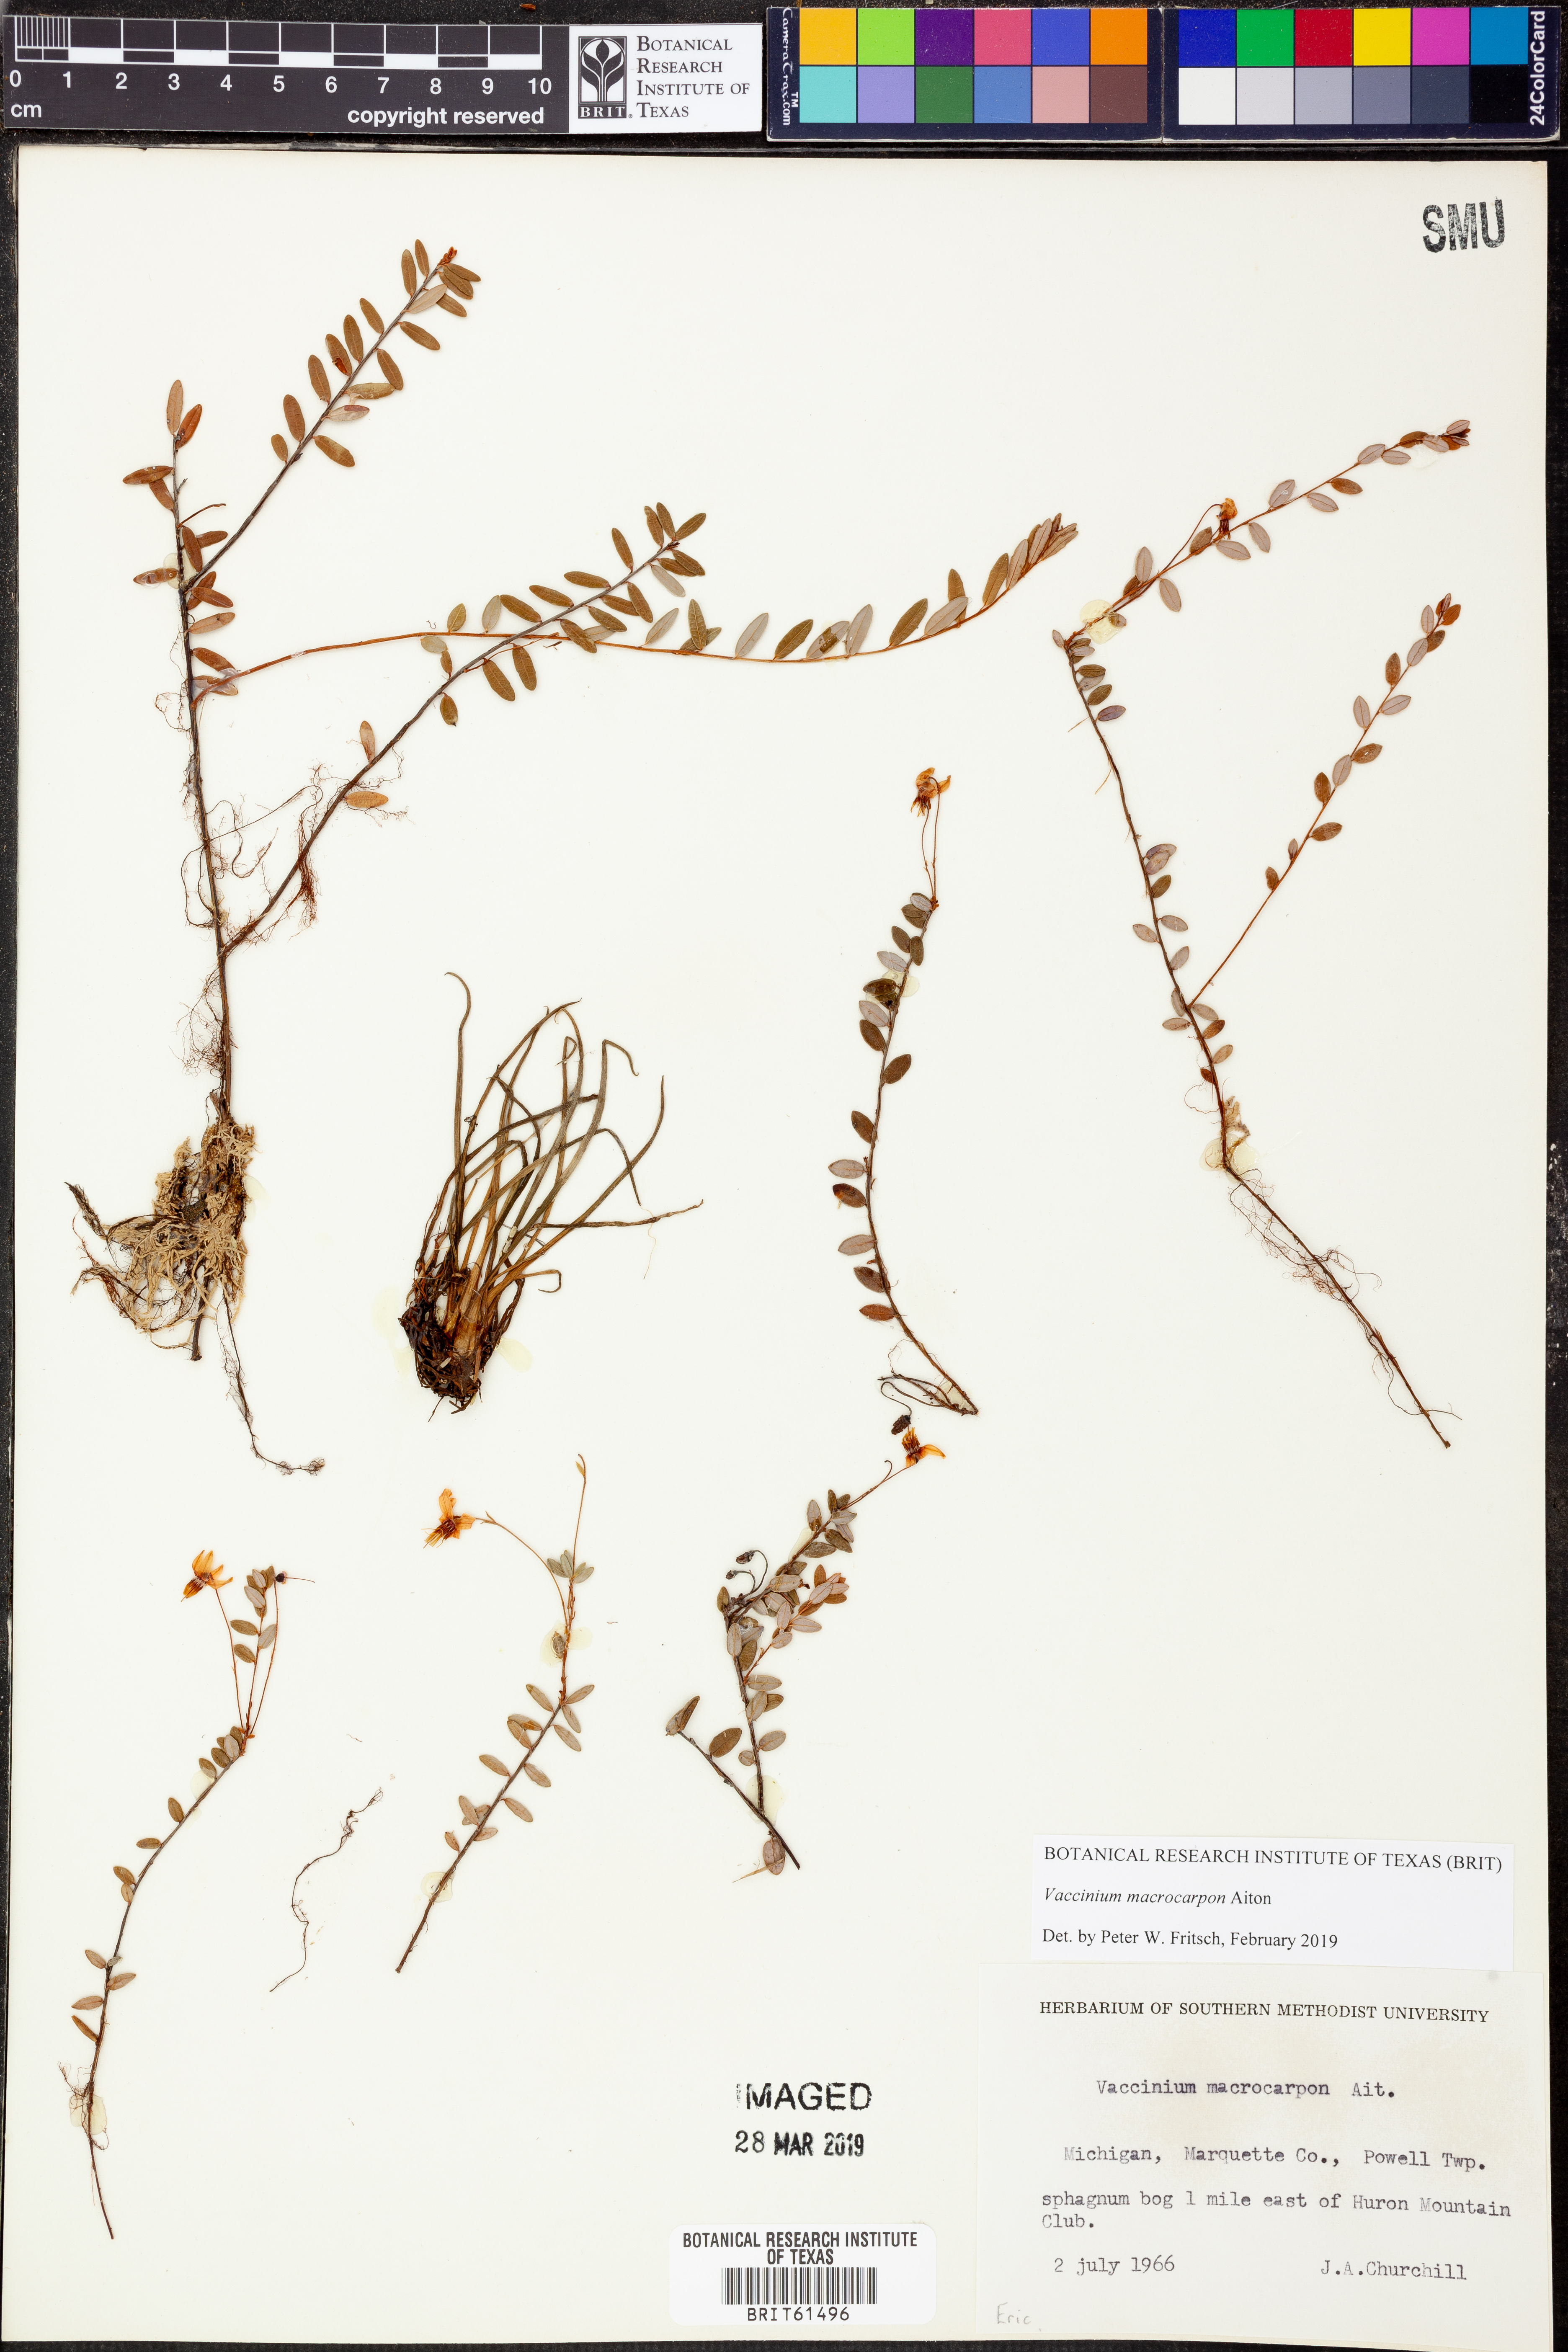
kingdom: Plantae
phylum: Tracheophyta
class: Magnoliopsida
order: Ericales
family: Ericaceae
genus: Vaccinium
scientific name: Vaccinium macrocarpon
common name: American cranberry
